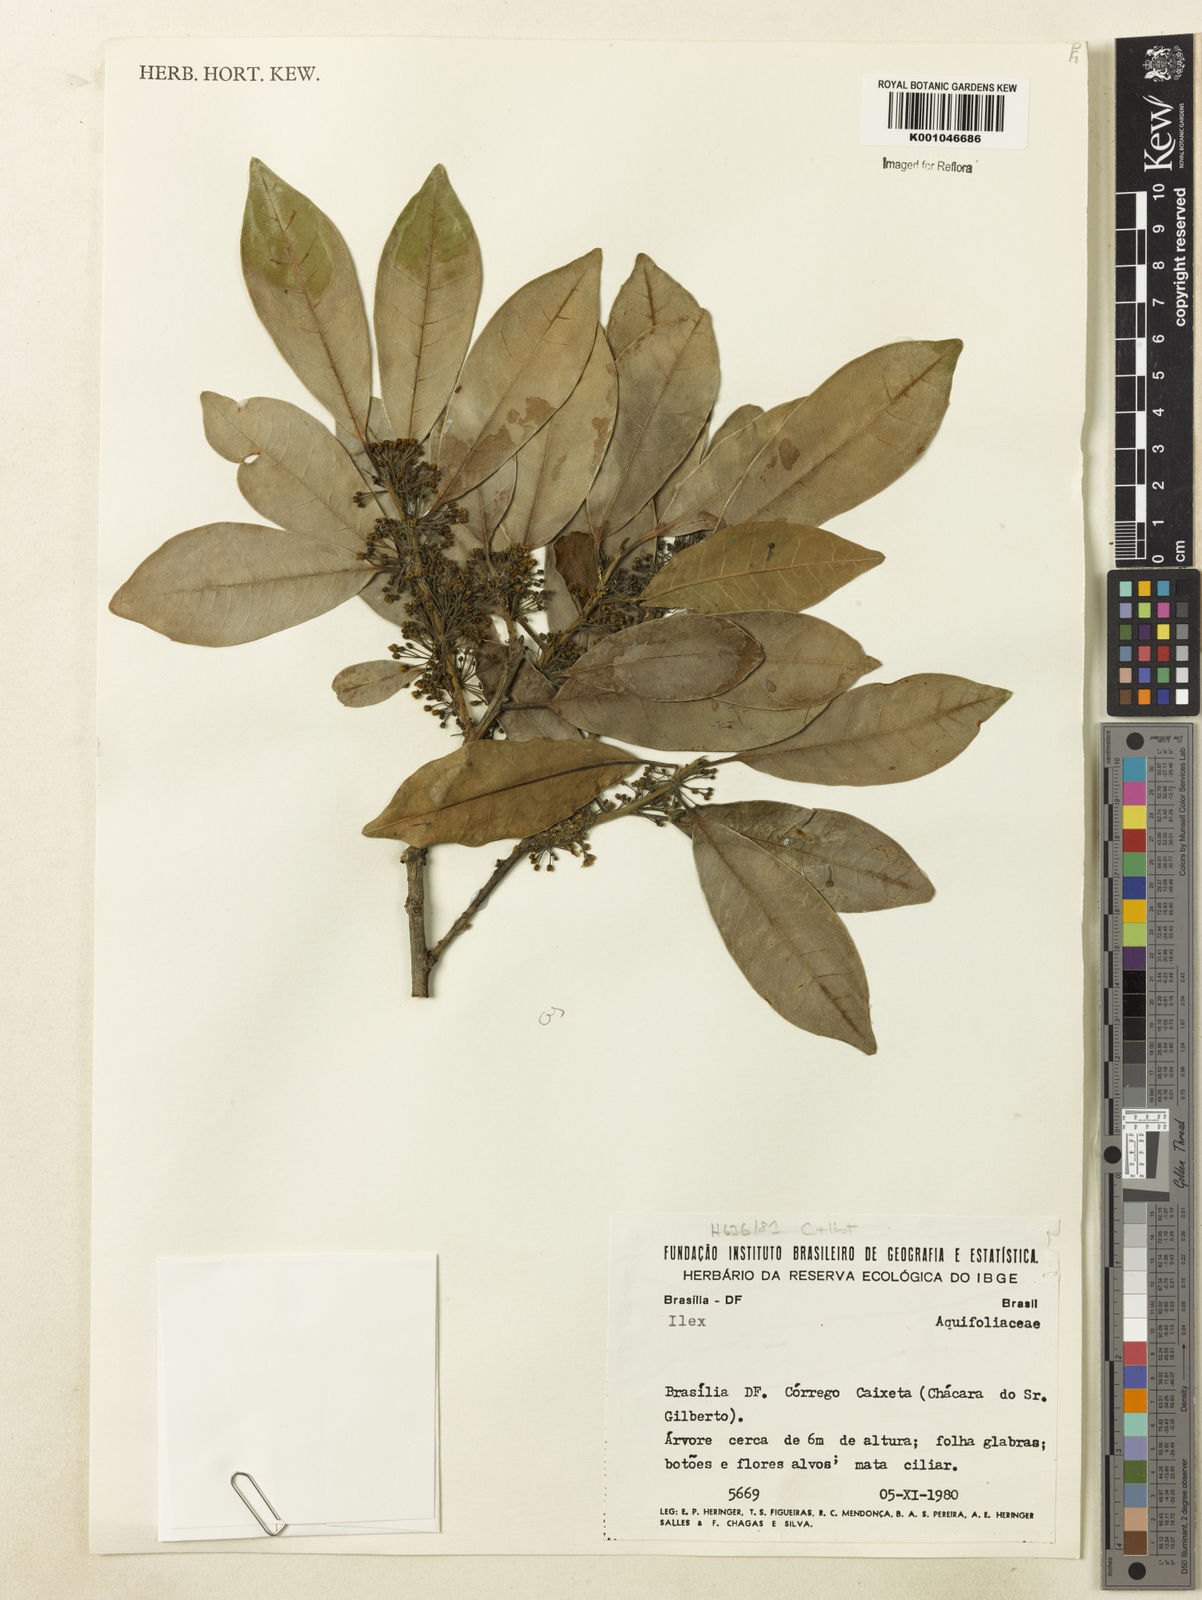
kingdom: Plantae
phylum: Tracheophyta
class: Magnoliopsida
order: Aquifoliales
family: Aquifoliaceae
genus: Ilex
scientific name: Ilex lundii
